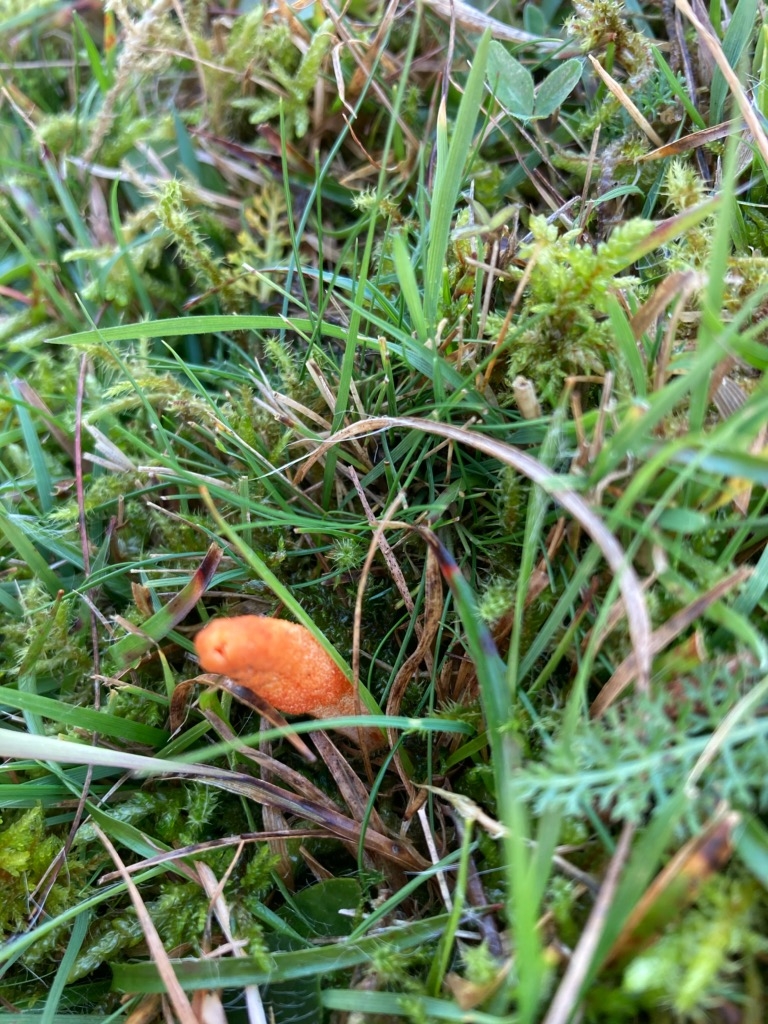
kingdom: Fungi
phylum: Ascomycota
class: Sordariomycetes
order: Hypocreales
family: Cordycipitaceae
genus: Cordyceps
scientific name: Cordyceps militaris
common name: puppe-snyltekølle
